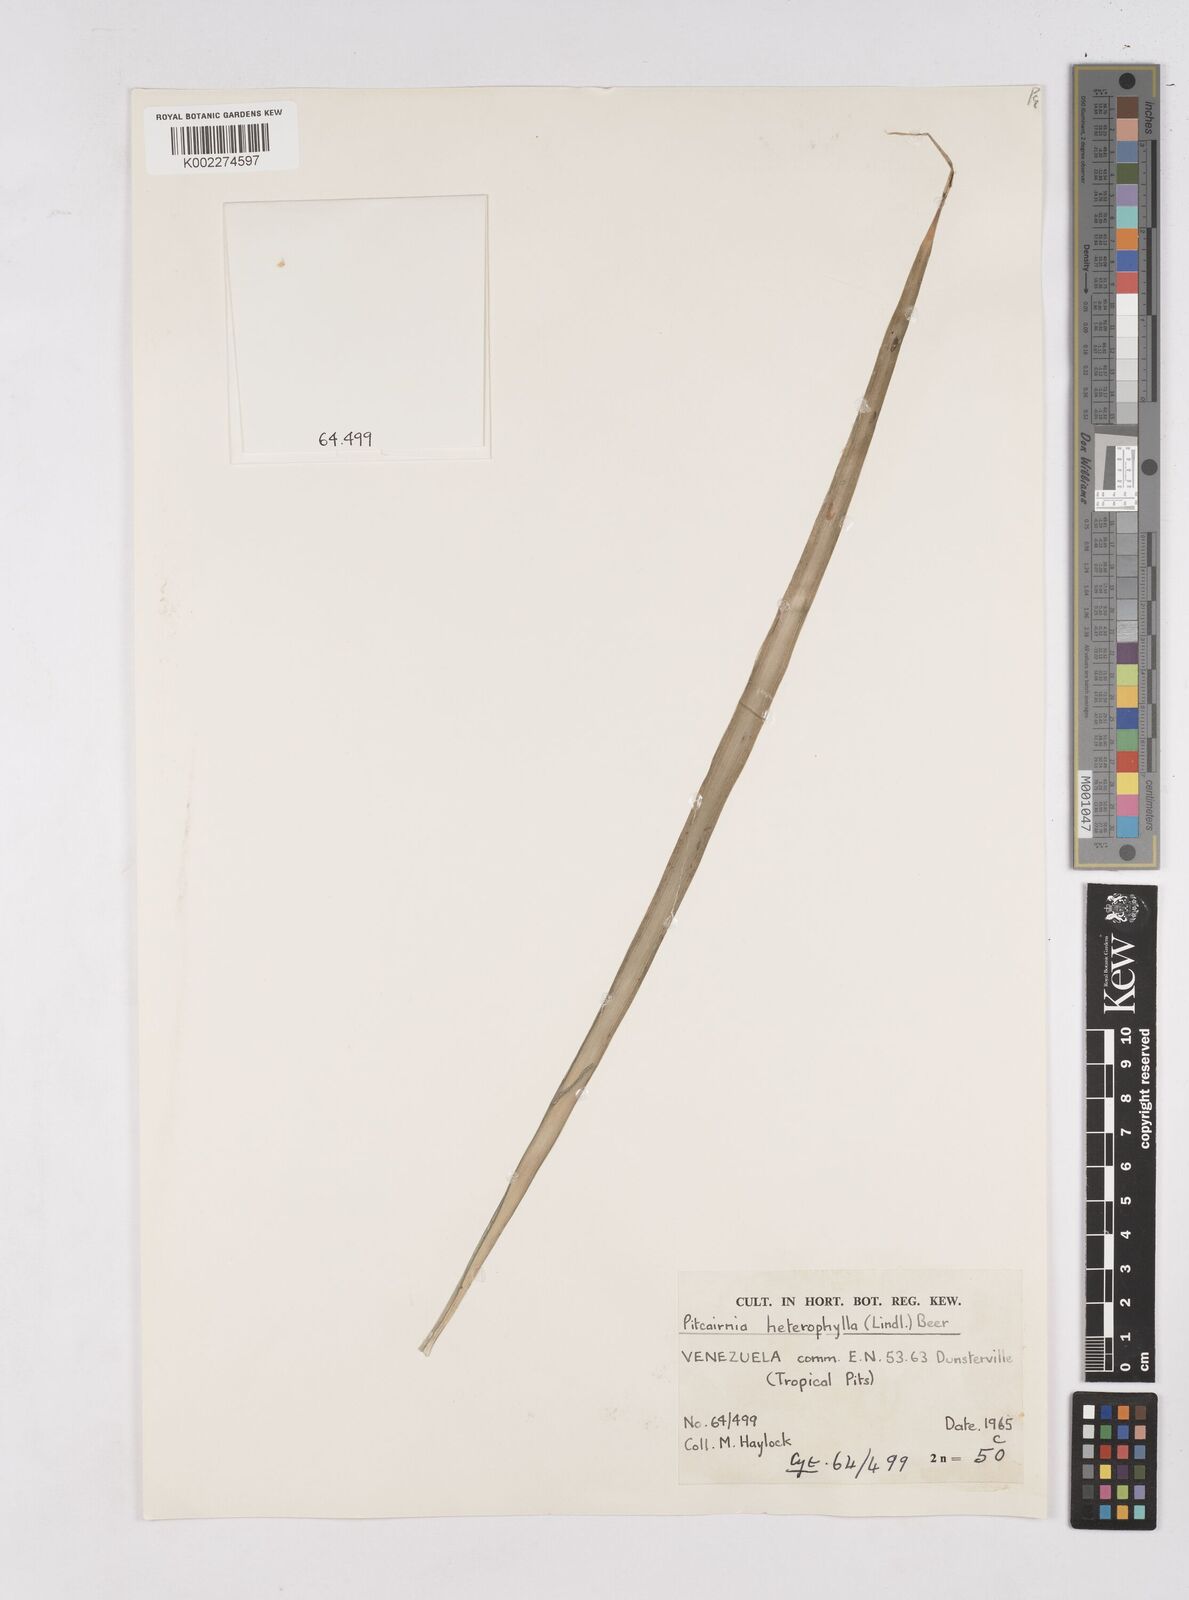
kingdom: Plantae
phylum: Tracheophyta
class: Liliopsida
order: Poales
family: Bromeliaceae
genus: Pitcairnia
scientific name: Pitcairnia heterophylla
